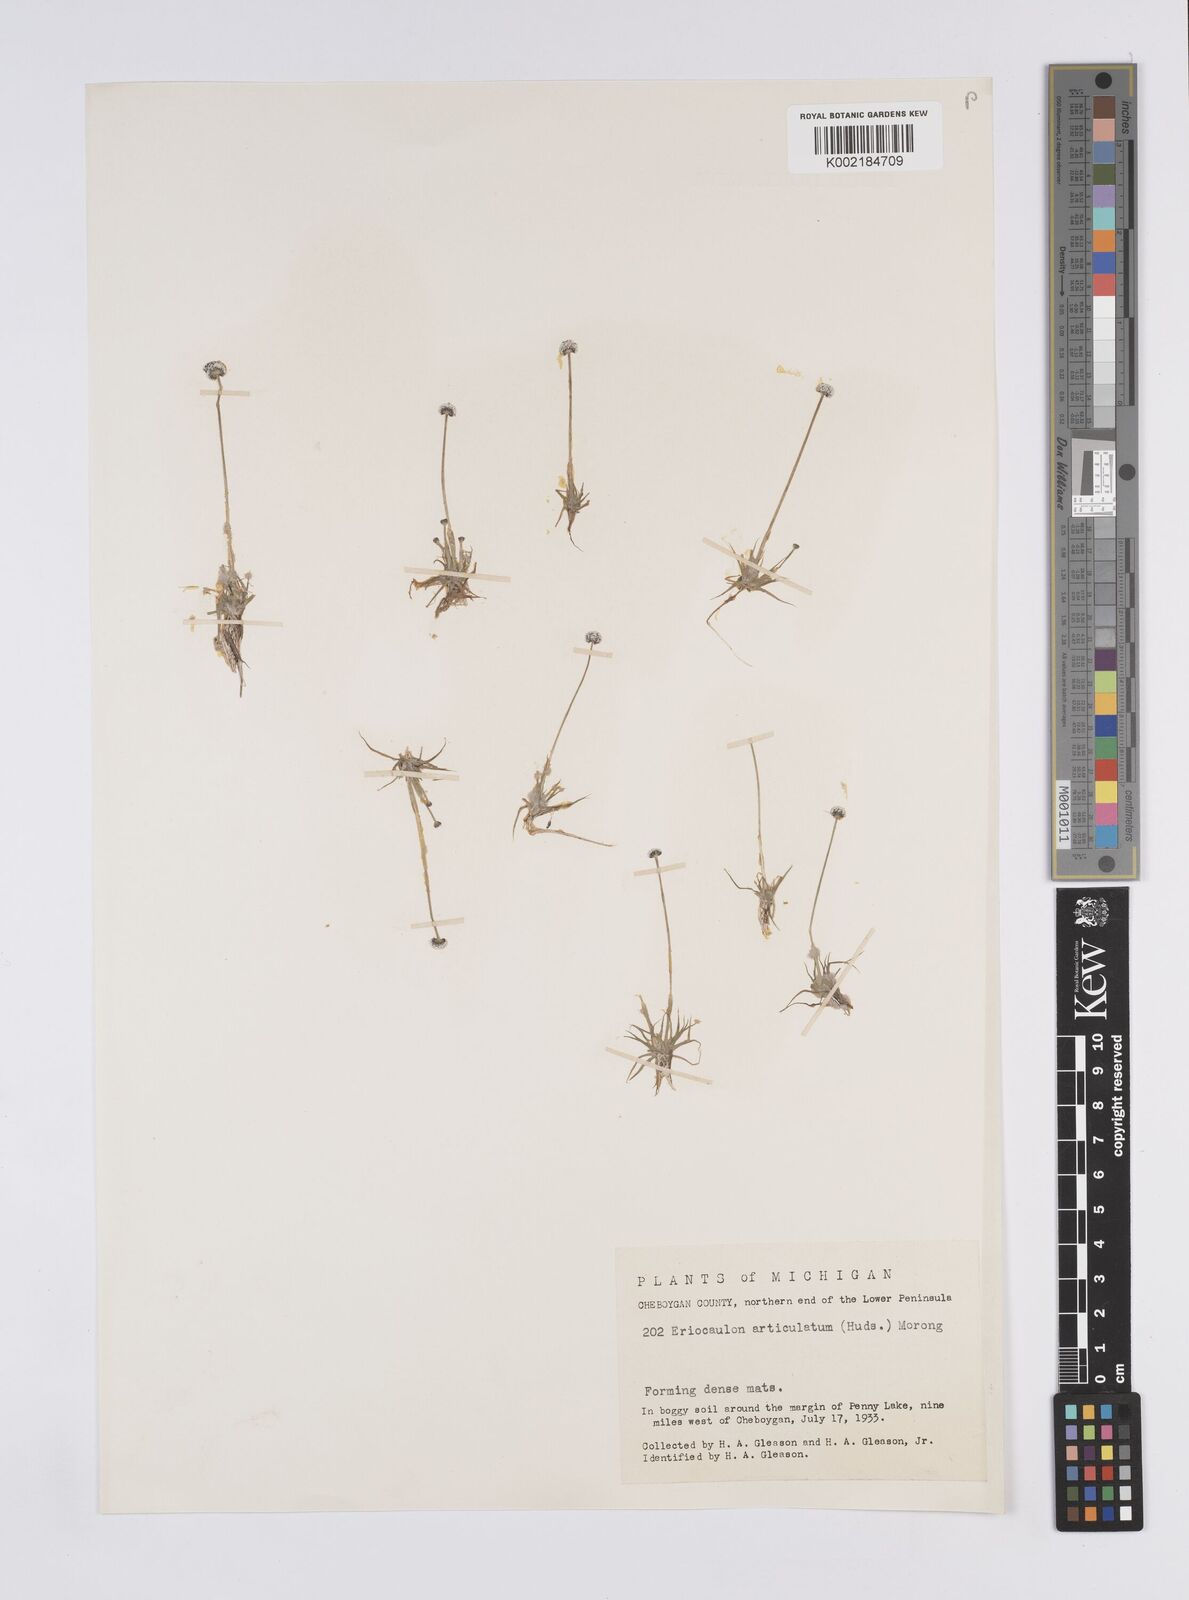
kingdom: Plantae
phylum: Tracheophyta
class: Liliopsida
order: Poales
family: Eriocaulaceae
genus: Eriocaulon
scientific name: Eriocaulon aquaticum
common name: Pipewort
